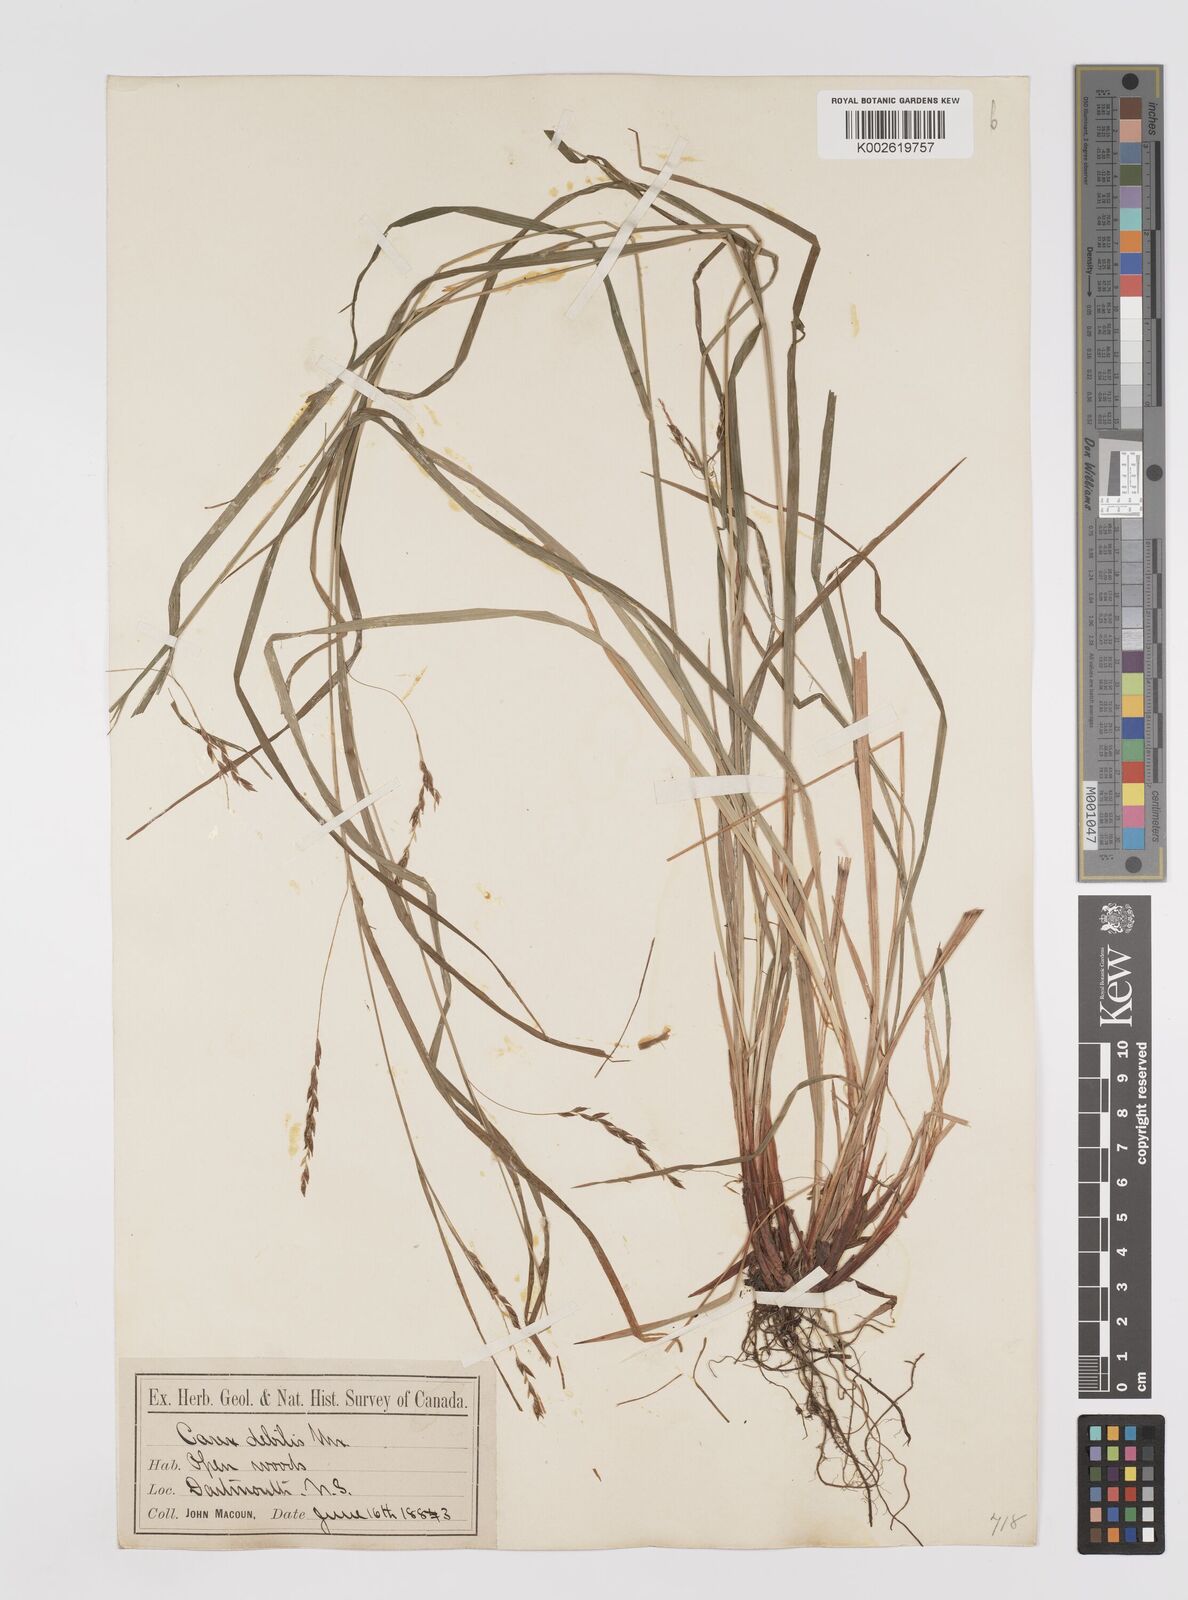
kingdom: Plantae
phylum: Tracheophyta
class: Liliopsida
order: Poales
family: Cyperaceae
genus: Carex
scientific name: Carex debilis
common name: White-edge sedge
